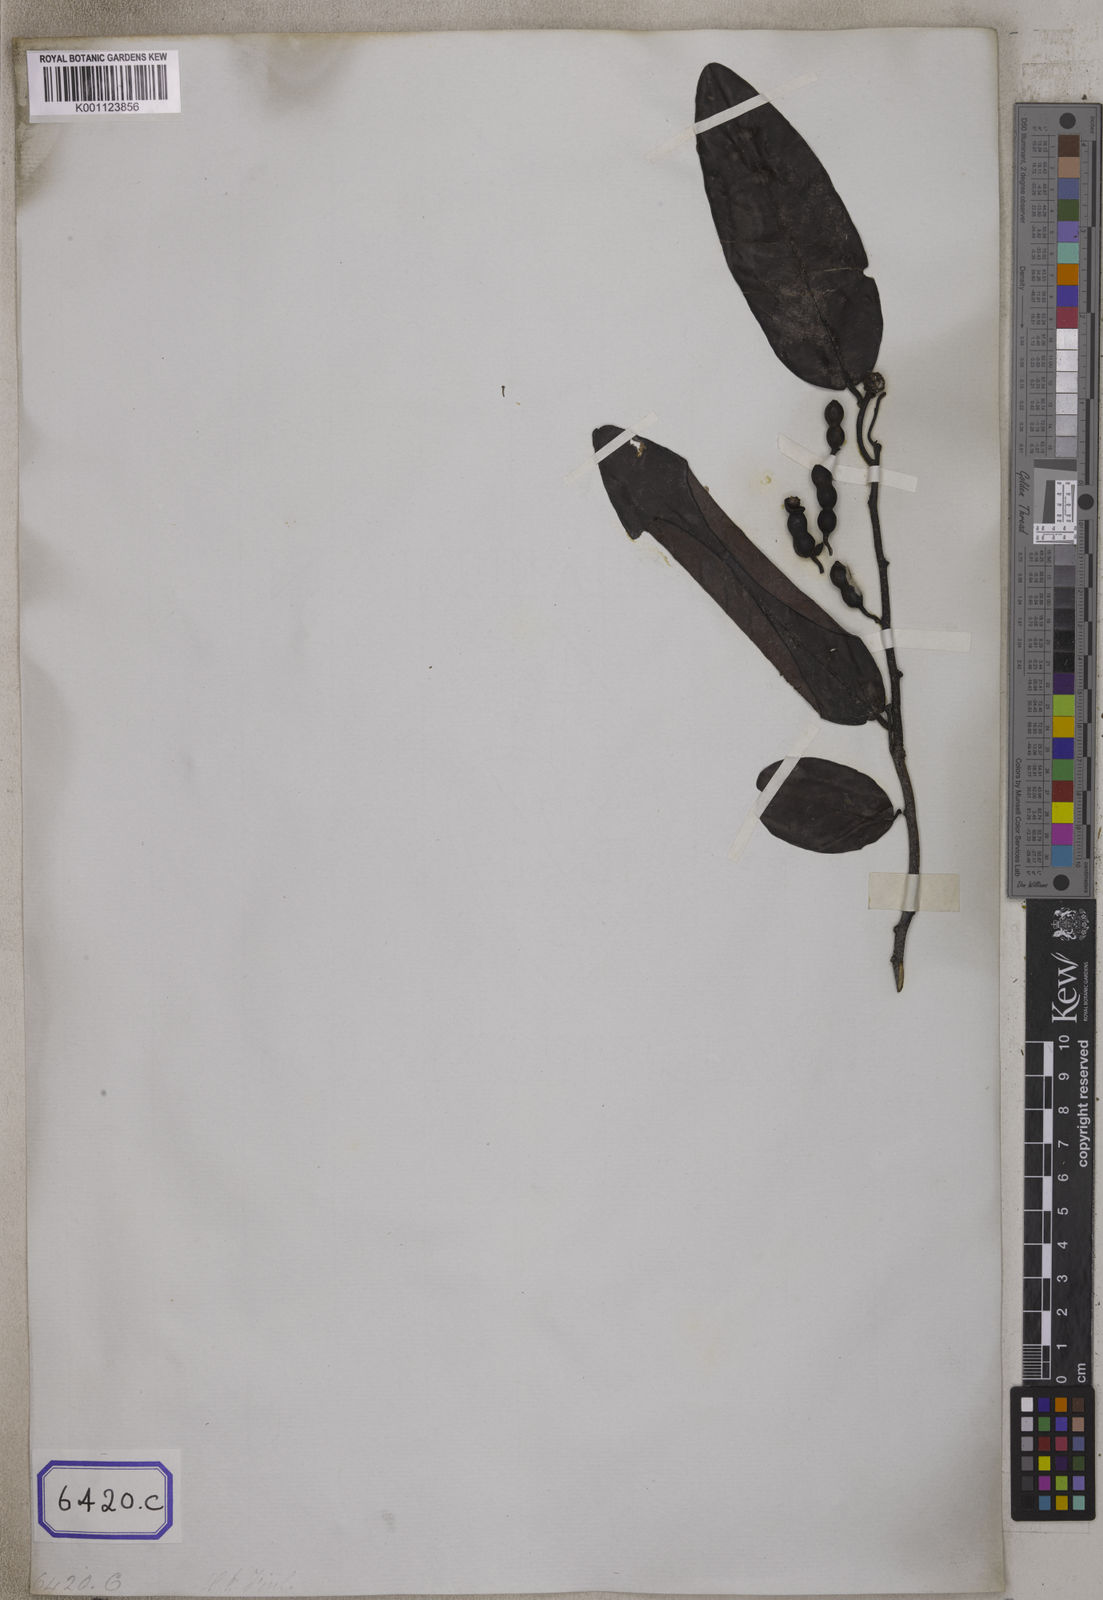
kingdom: Plantae
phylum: Tracheophyta
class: Magnoliopsida
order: Magnoliales
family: Annonaceae
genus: Desmos
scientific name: Desmos chinensis
